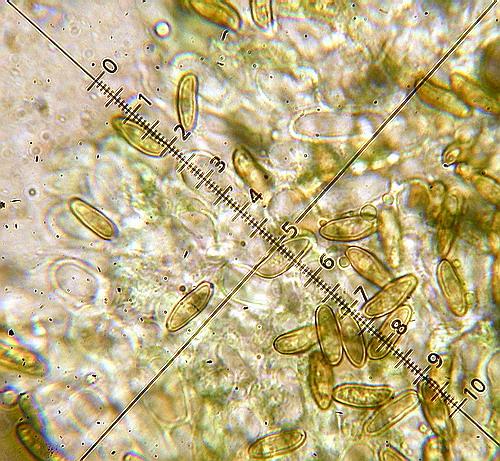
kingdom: Fungi
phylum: Basidiomycota
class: Agaricomycetes
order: Boletales
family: Boletaceae
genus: Hortiboletus
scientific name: Hortiboletus engelii
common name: fersken-rørhat
